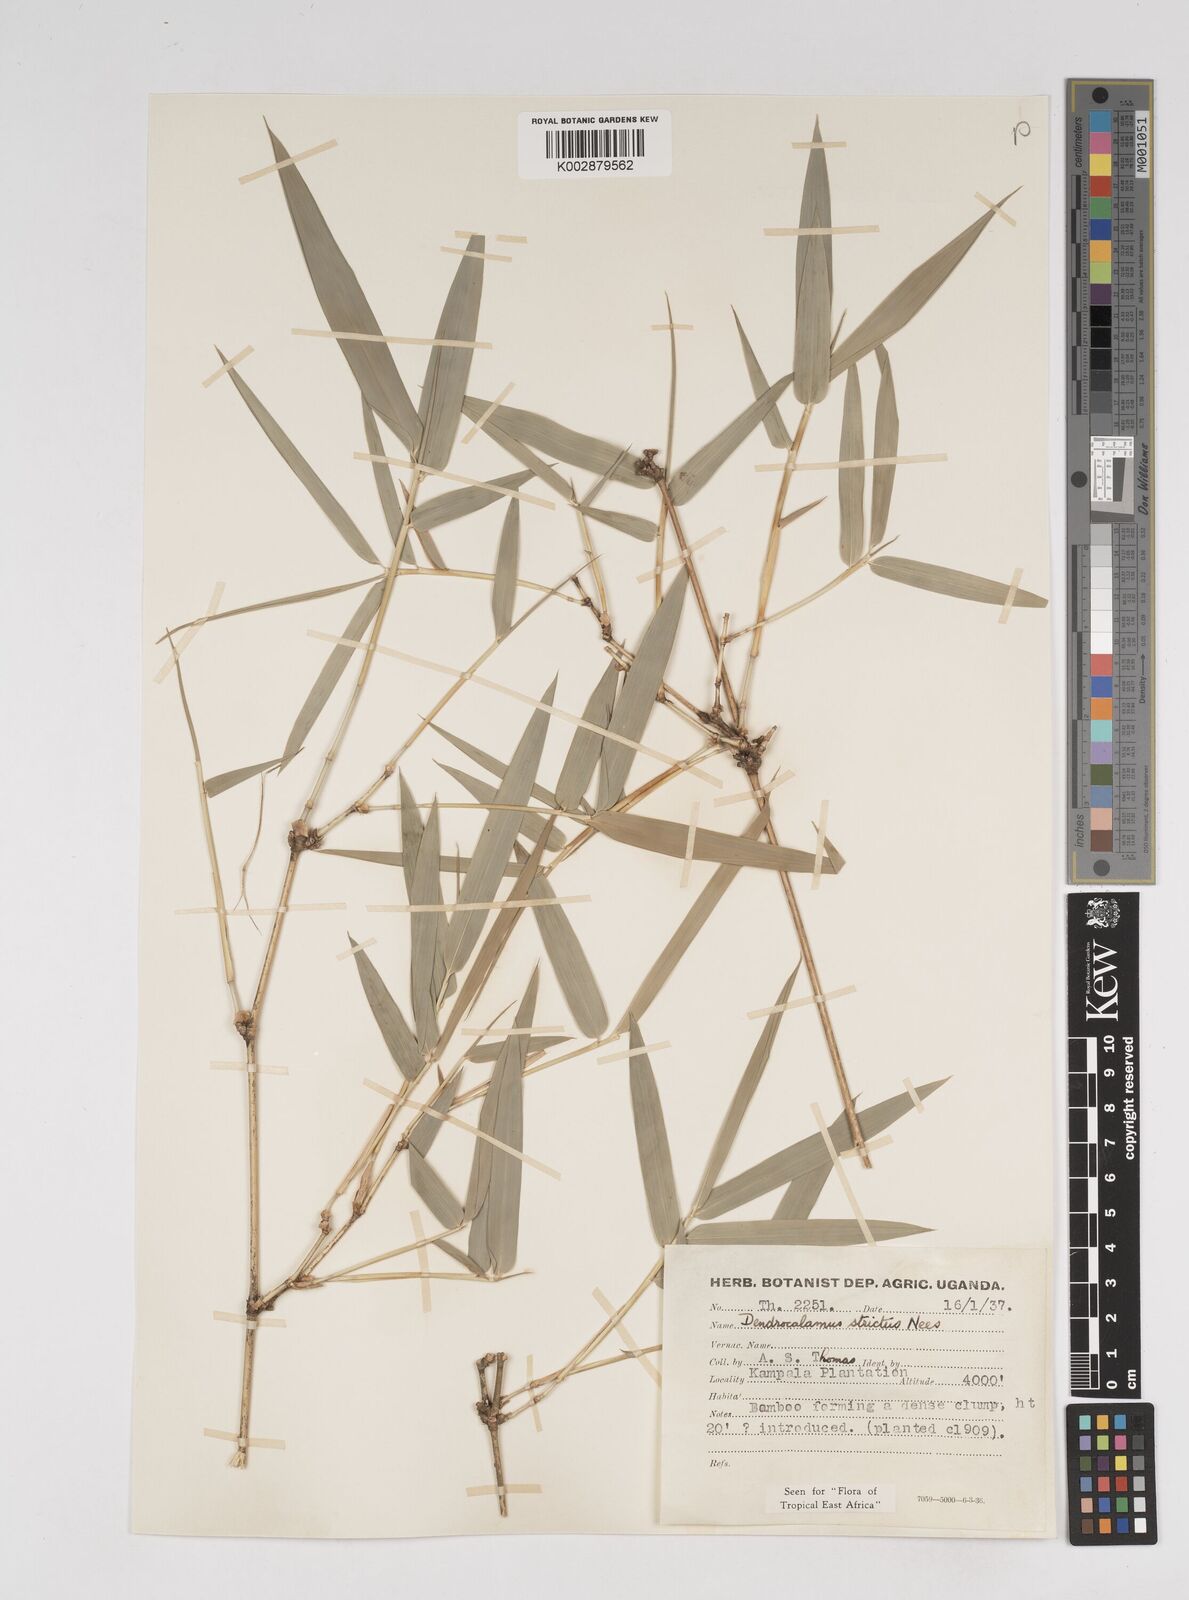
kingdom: Plantae
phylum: Tracheophyta
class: Liliopsida
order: Poales
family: Poaceae
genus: Dendrocalamus
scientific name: Dendrocalamus strictus
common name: Male bamboo
